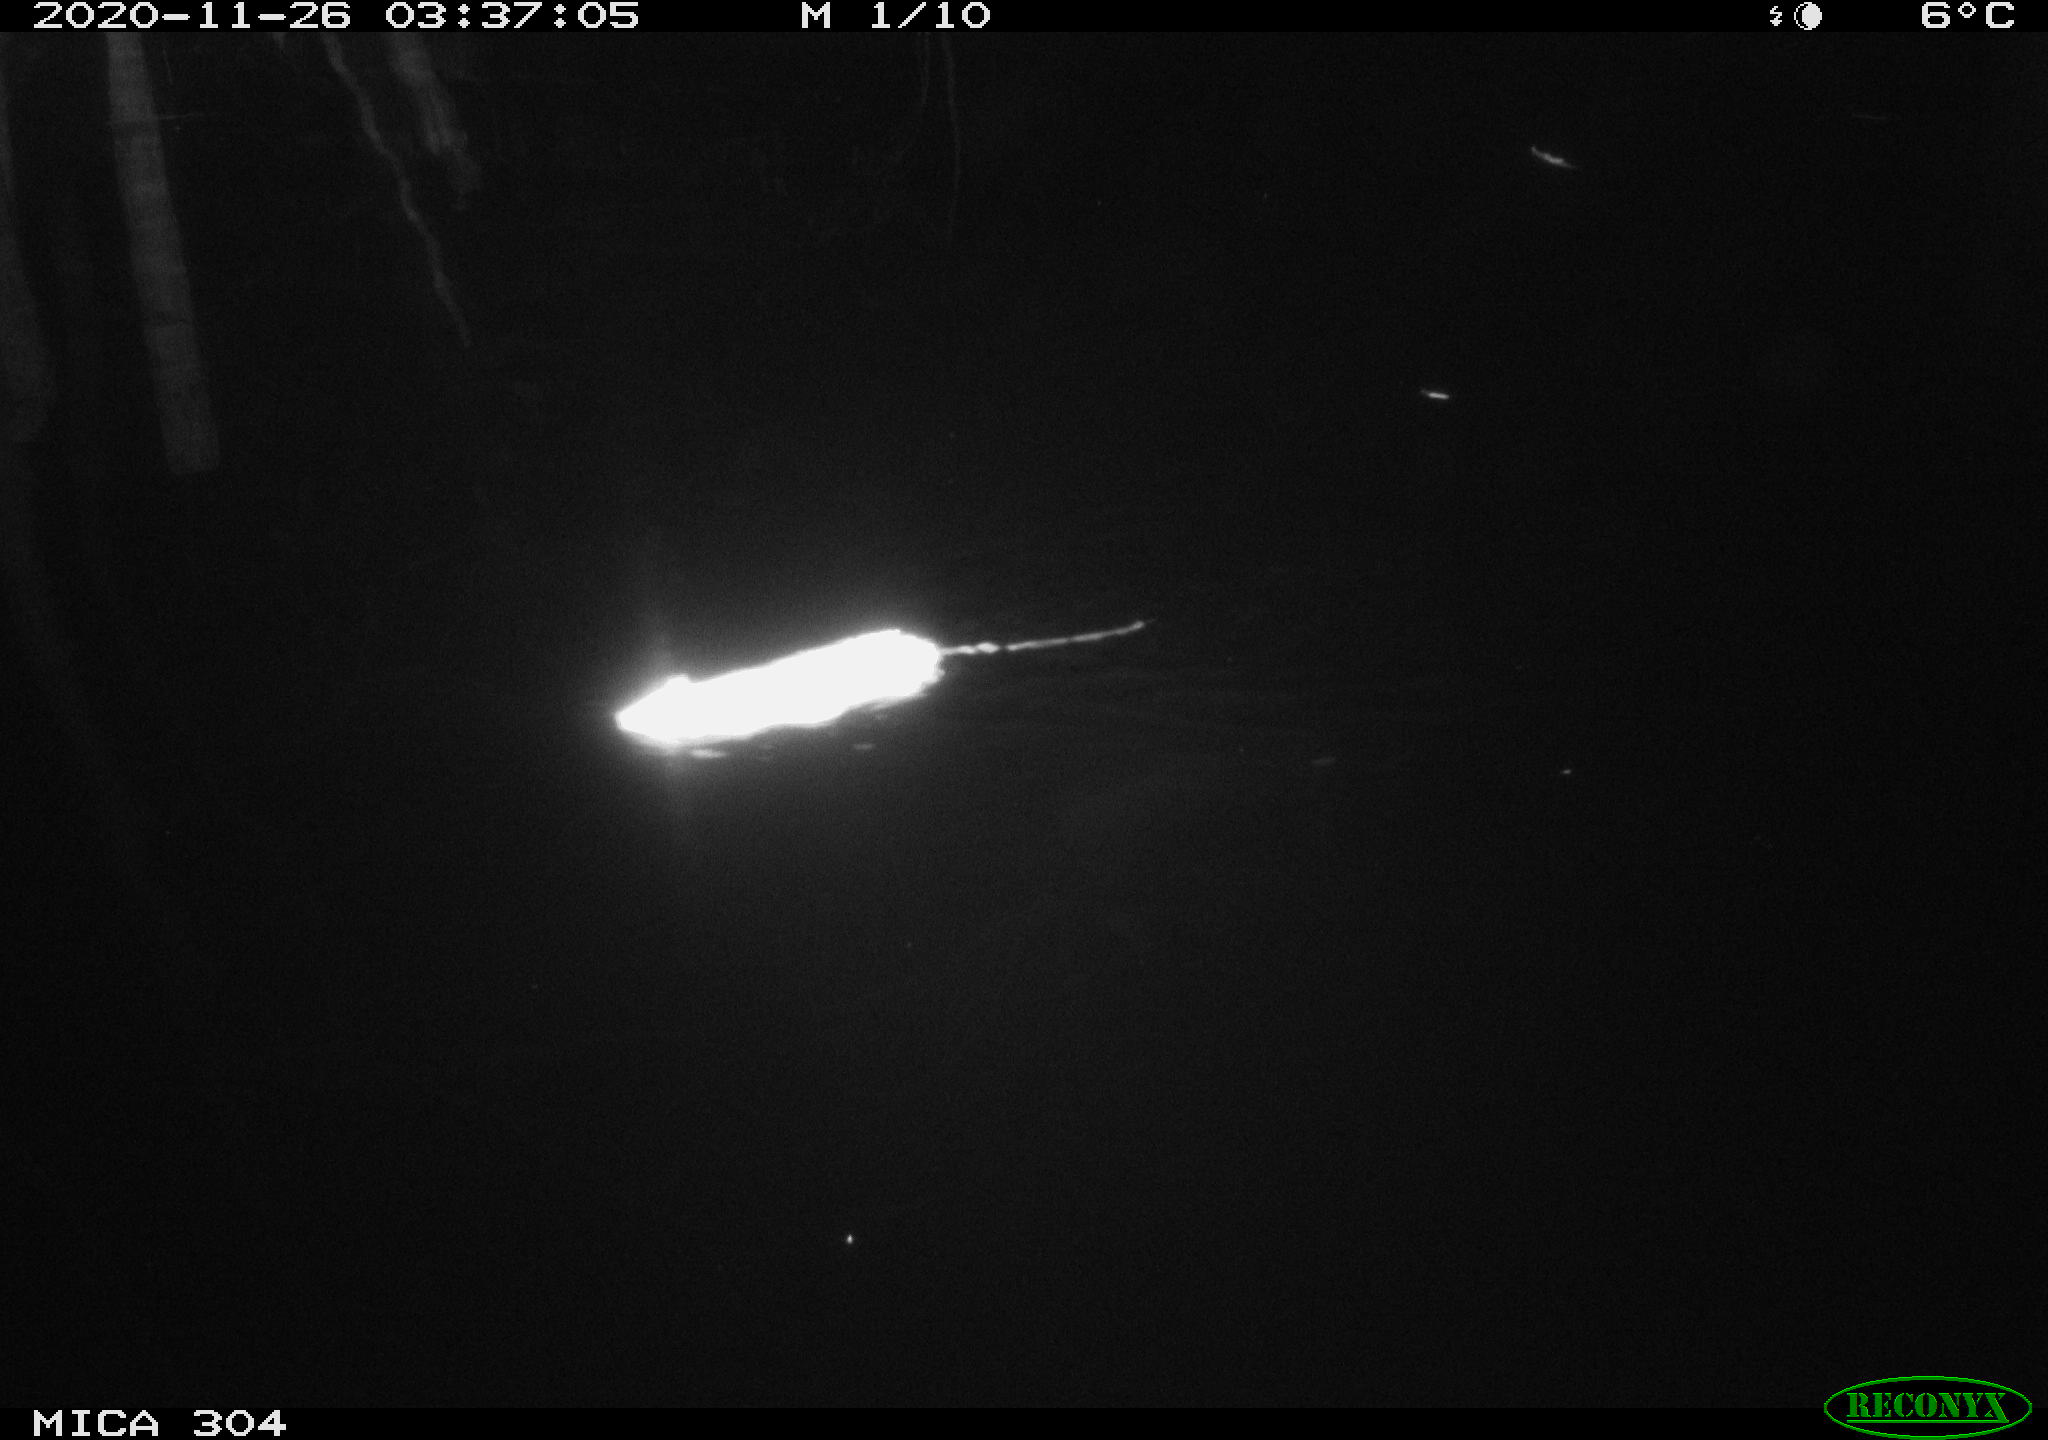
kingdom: Animalia
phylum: Chordata
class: Mammalia
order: Rodentia
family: Muridae
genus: Rattus
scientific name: Rattus norvegicus
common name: Brown rat
